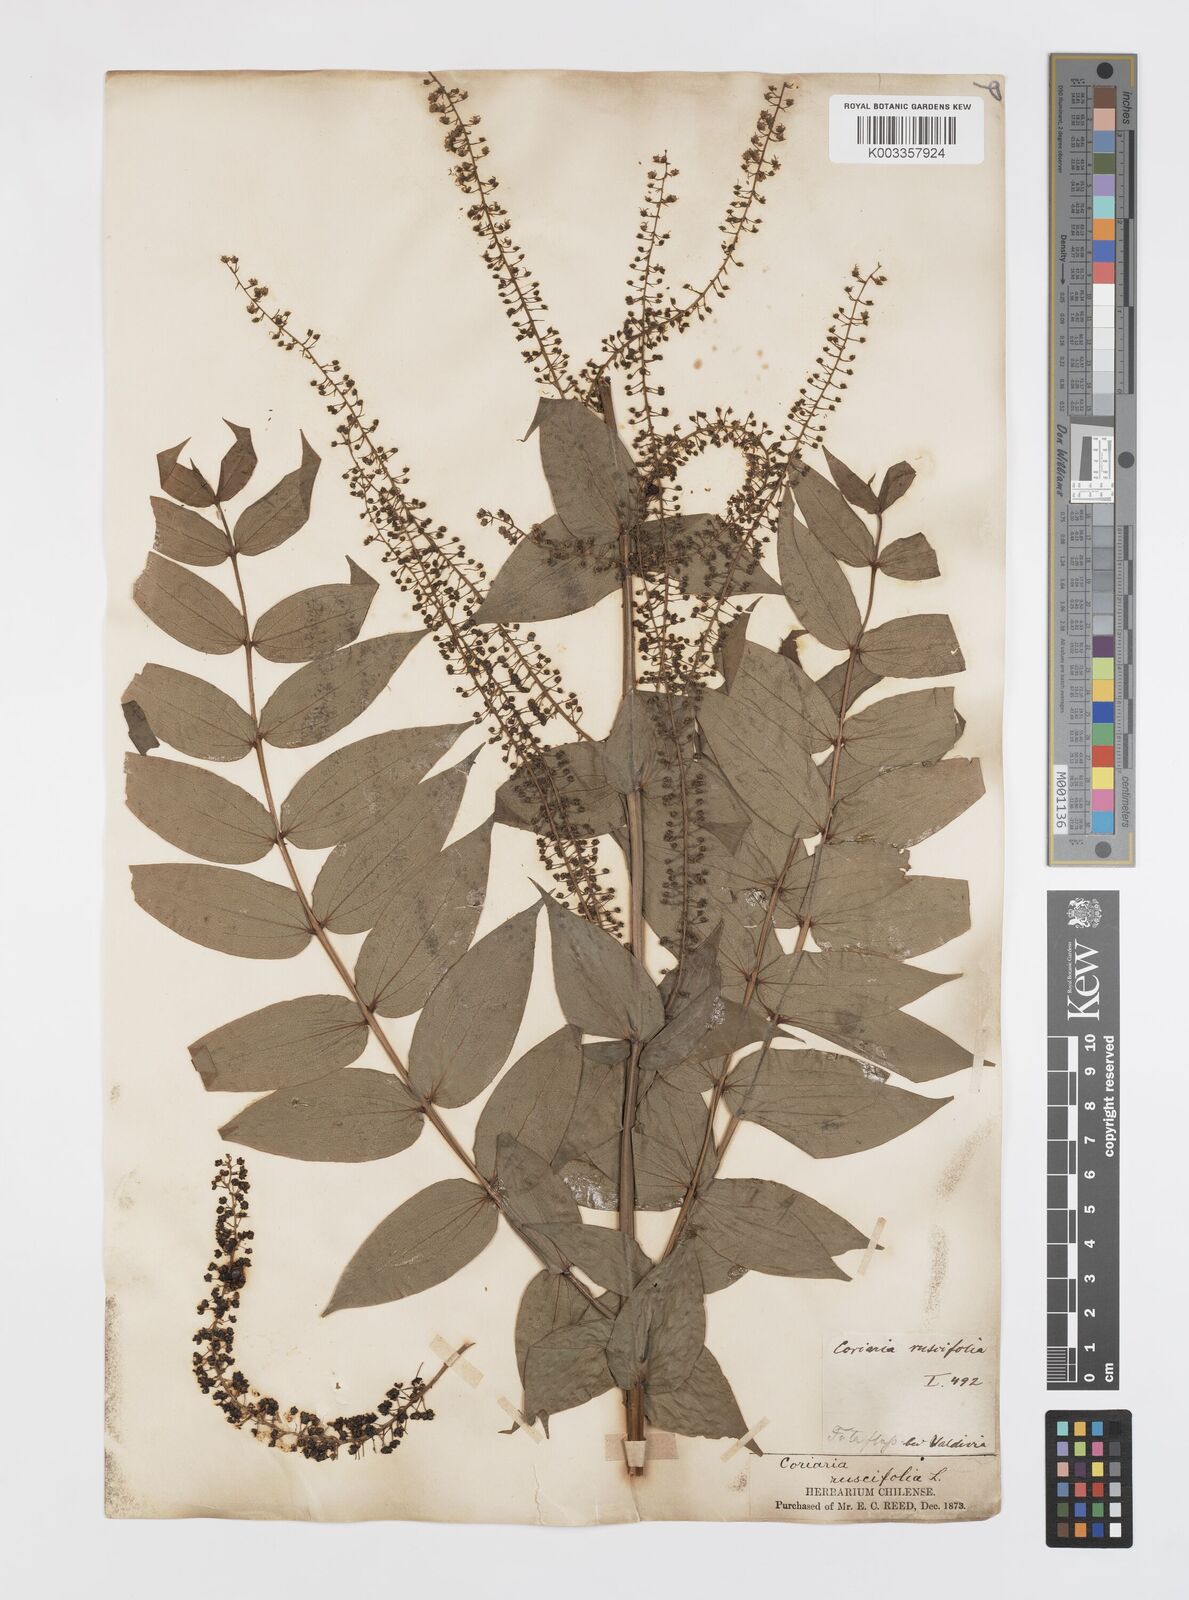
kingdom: Plantae
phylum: Tracheophyta
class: Magnoliopsida
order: Cucurbitales
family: Coriariaceae
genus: Coriaria
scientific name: Coriaria ruscifolia
